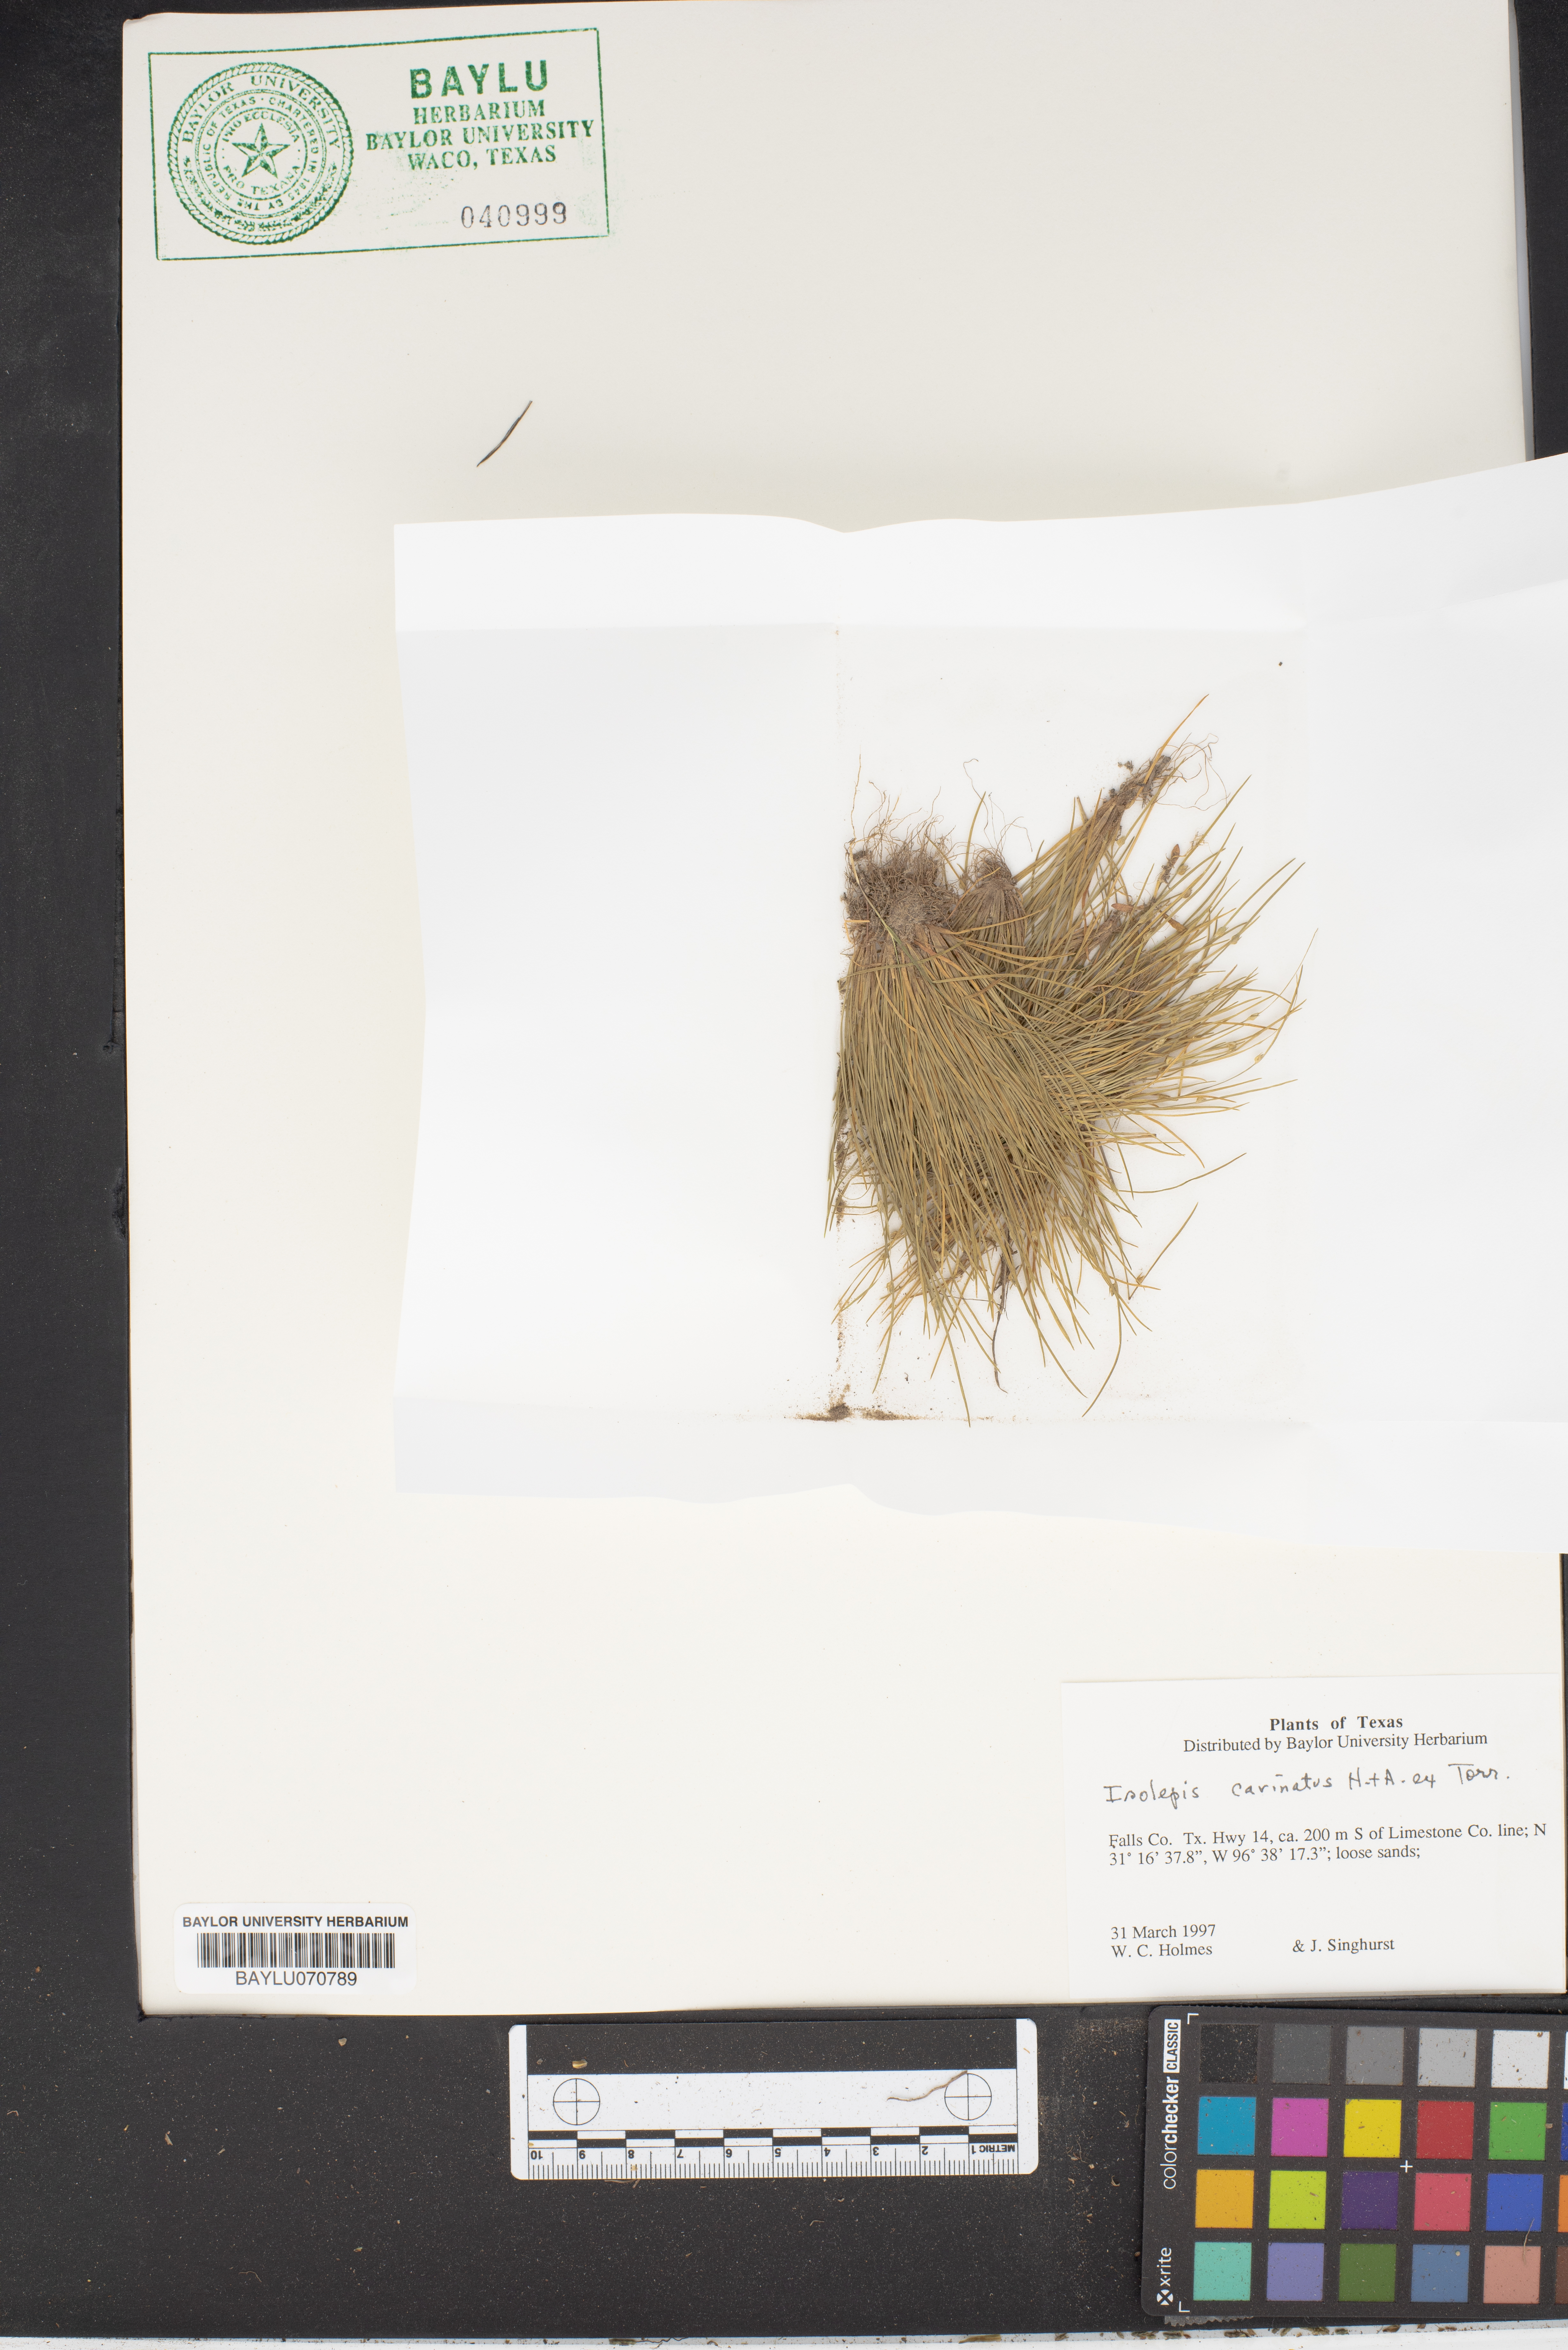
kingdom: Plantae
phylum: Tracheophyta
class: Liliopsida
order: Poales
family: Cyperaceae
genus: Isolepis
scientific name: Isolepis carinata
